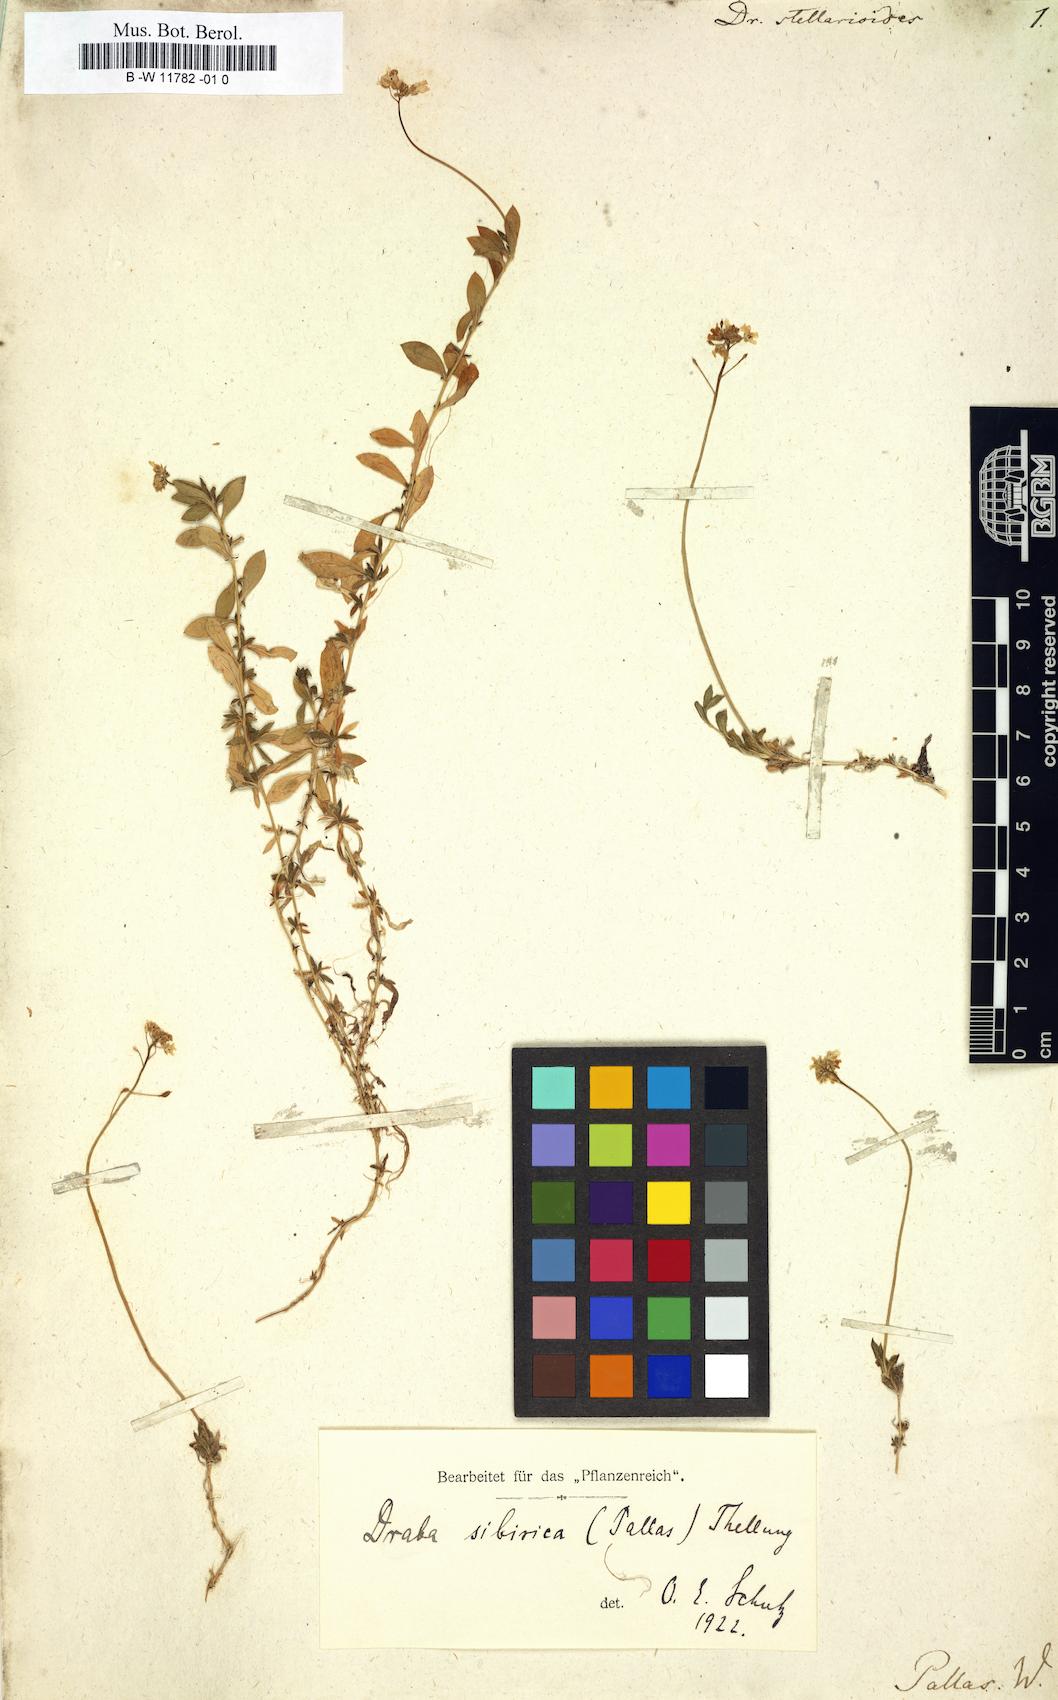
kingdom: Plantae
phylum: Tracheophyta
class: Magnoliopsida
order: Brassicales
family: Brassicaceae
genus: Draba
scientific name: Draba sibirica
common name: Siberian draba
